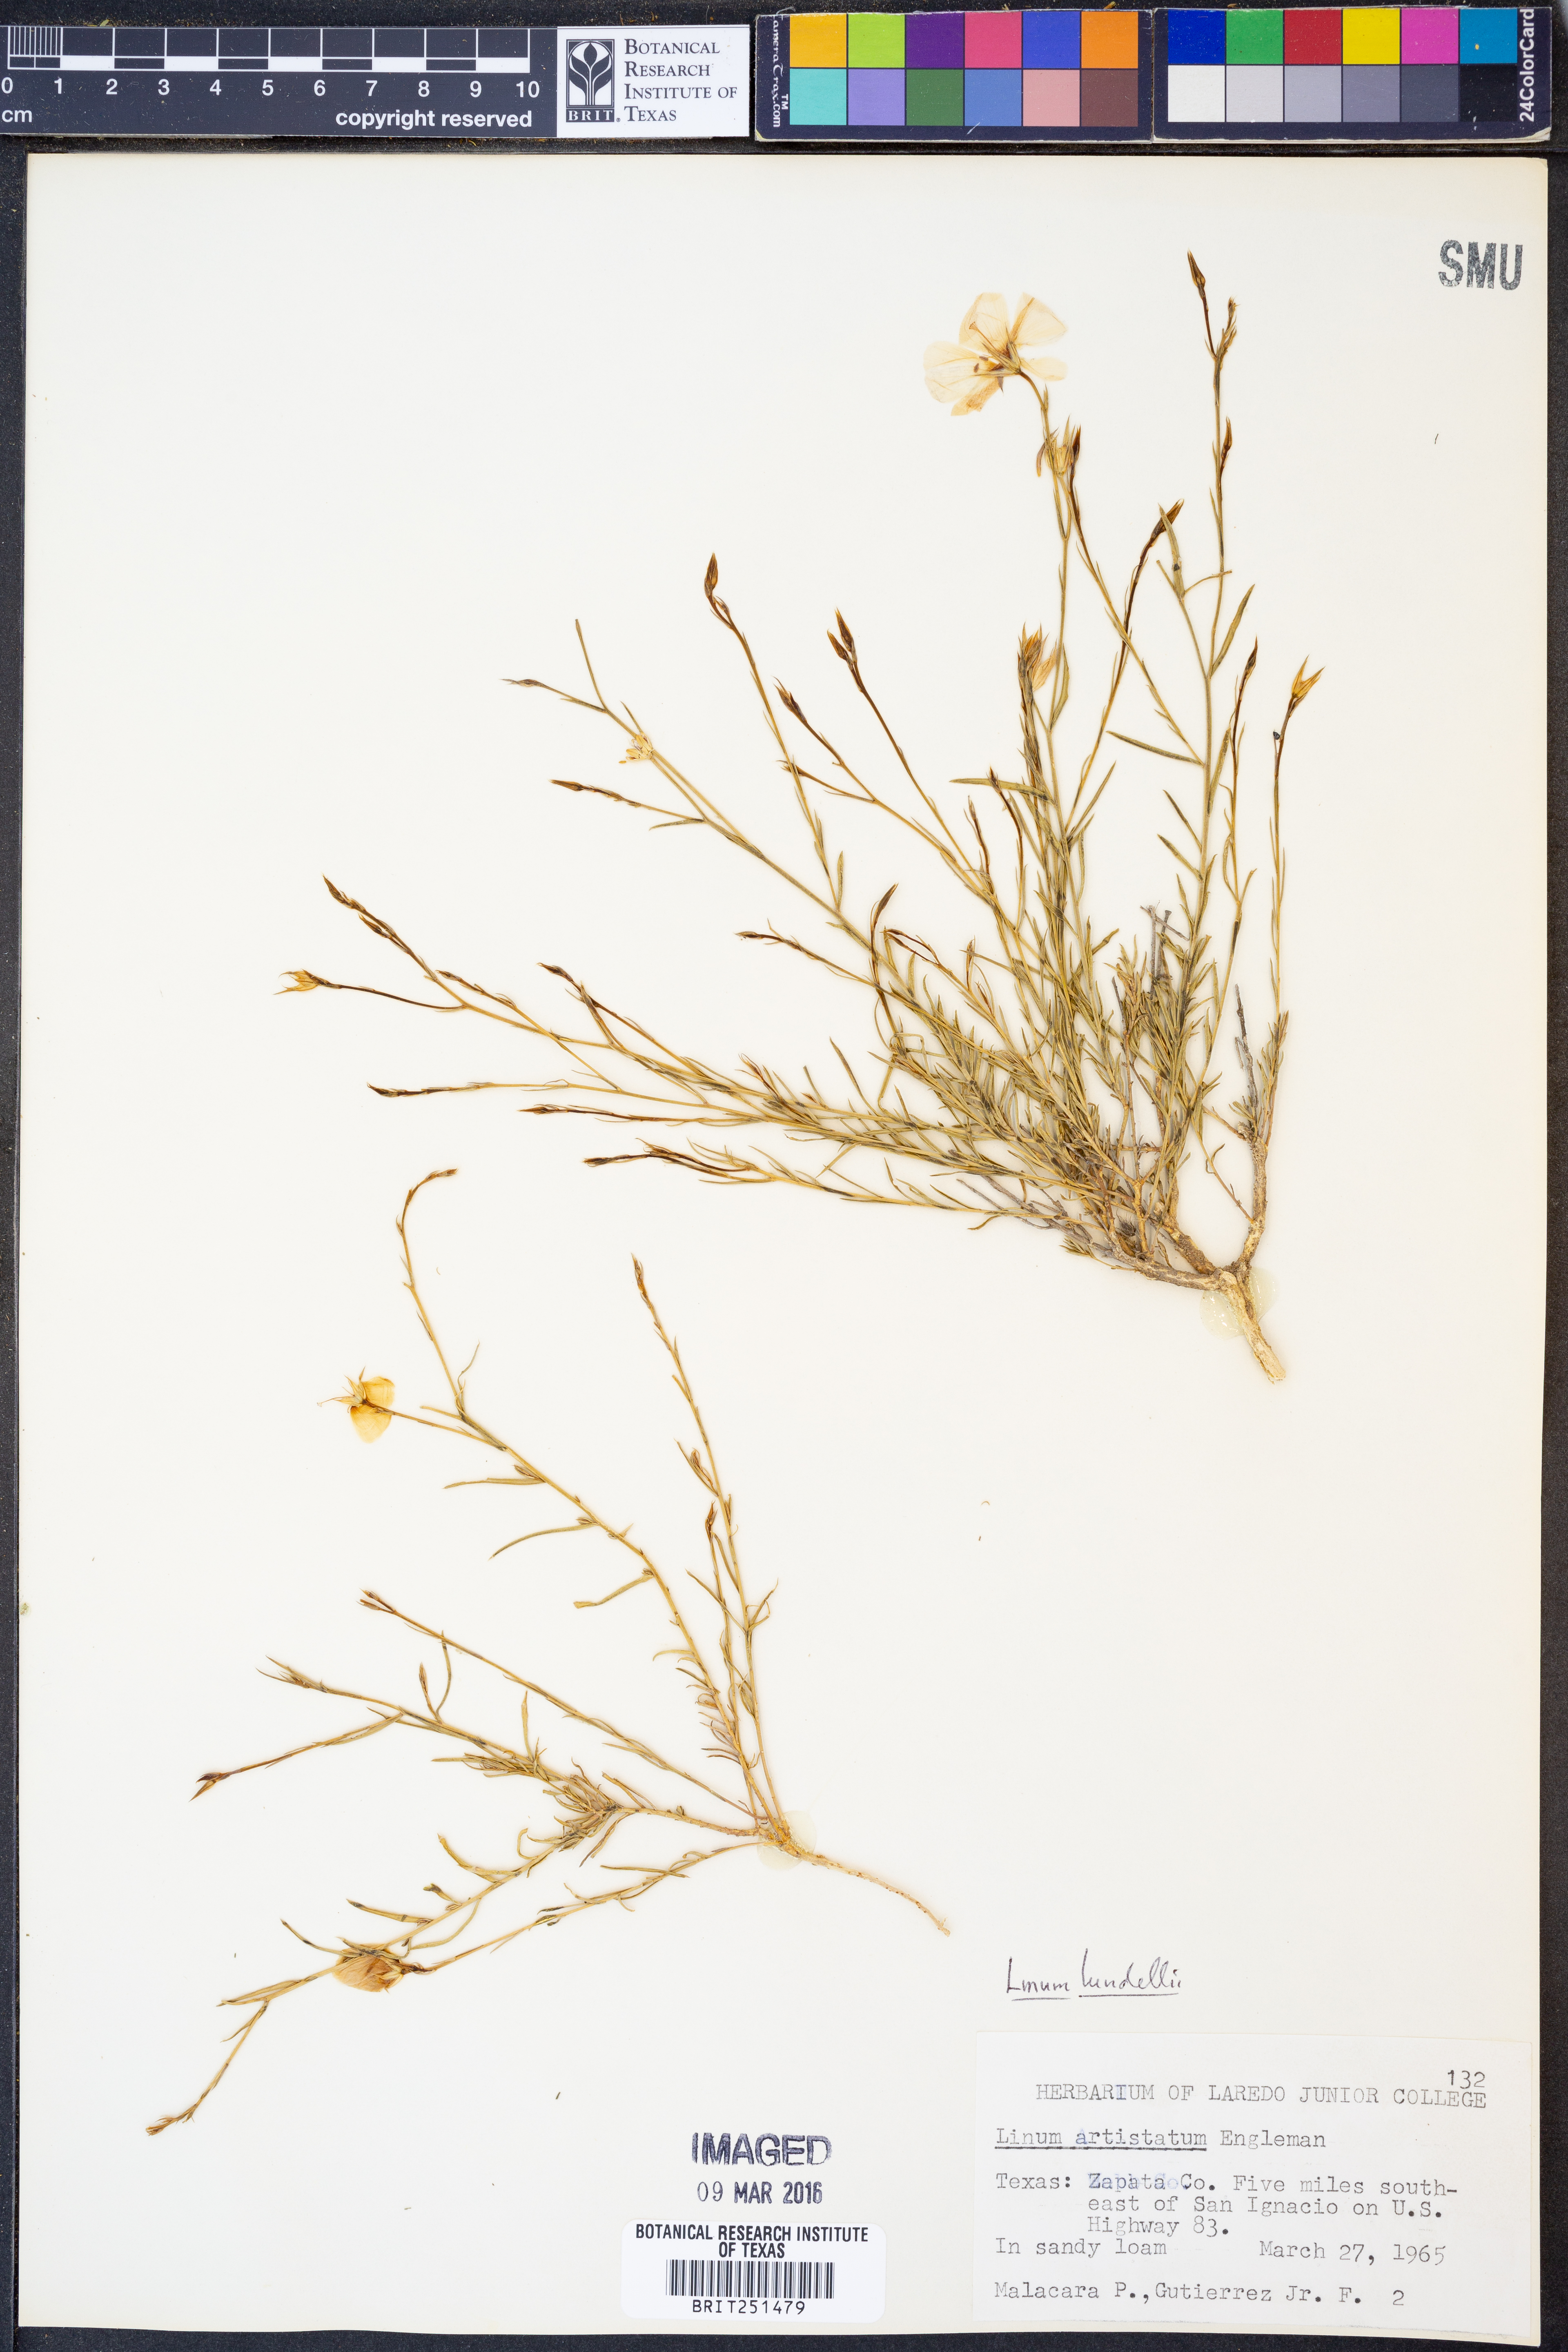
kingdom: Plantae
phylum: Tracheophyta
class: Magnoliopsida
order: Malpighiales
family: Linaceae
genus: Linum
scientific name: Linum lundellii
